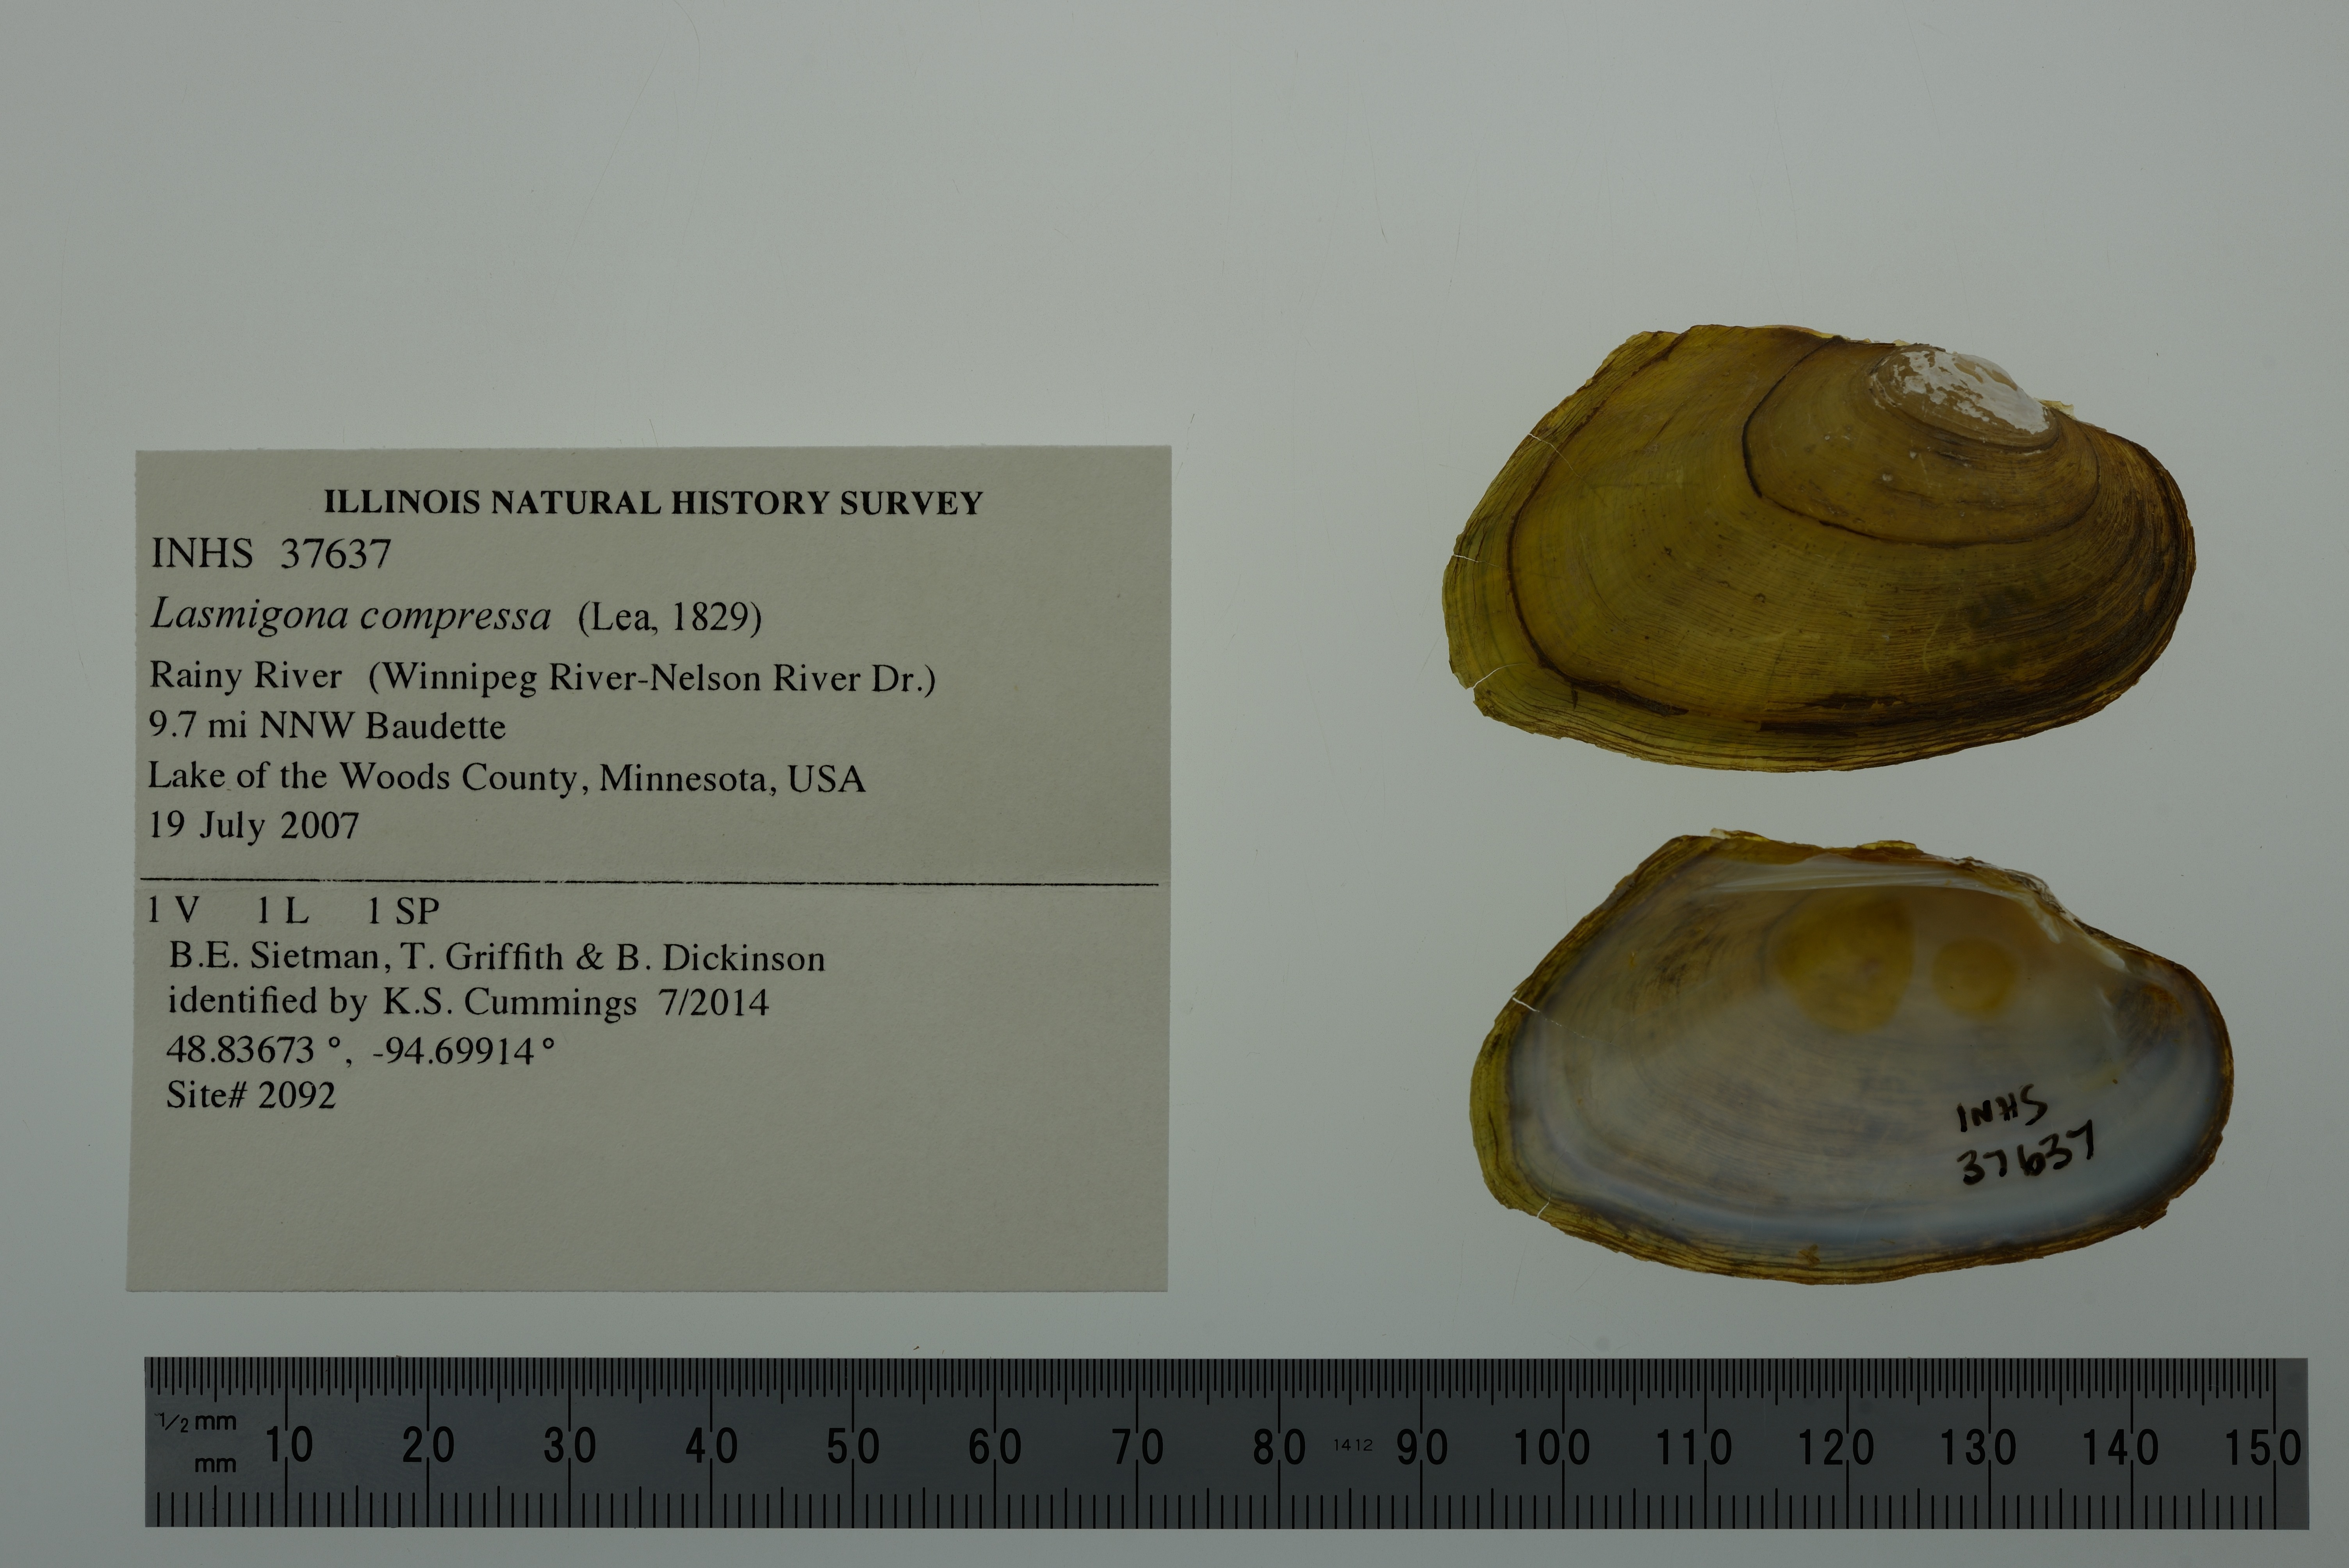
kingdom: Animalia
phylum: Mollusca
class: Bivalvia
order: Unionida
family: Unionidae
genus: Lasmigona
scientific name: Lasmigona compressa
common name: Creek heelsplitter
